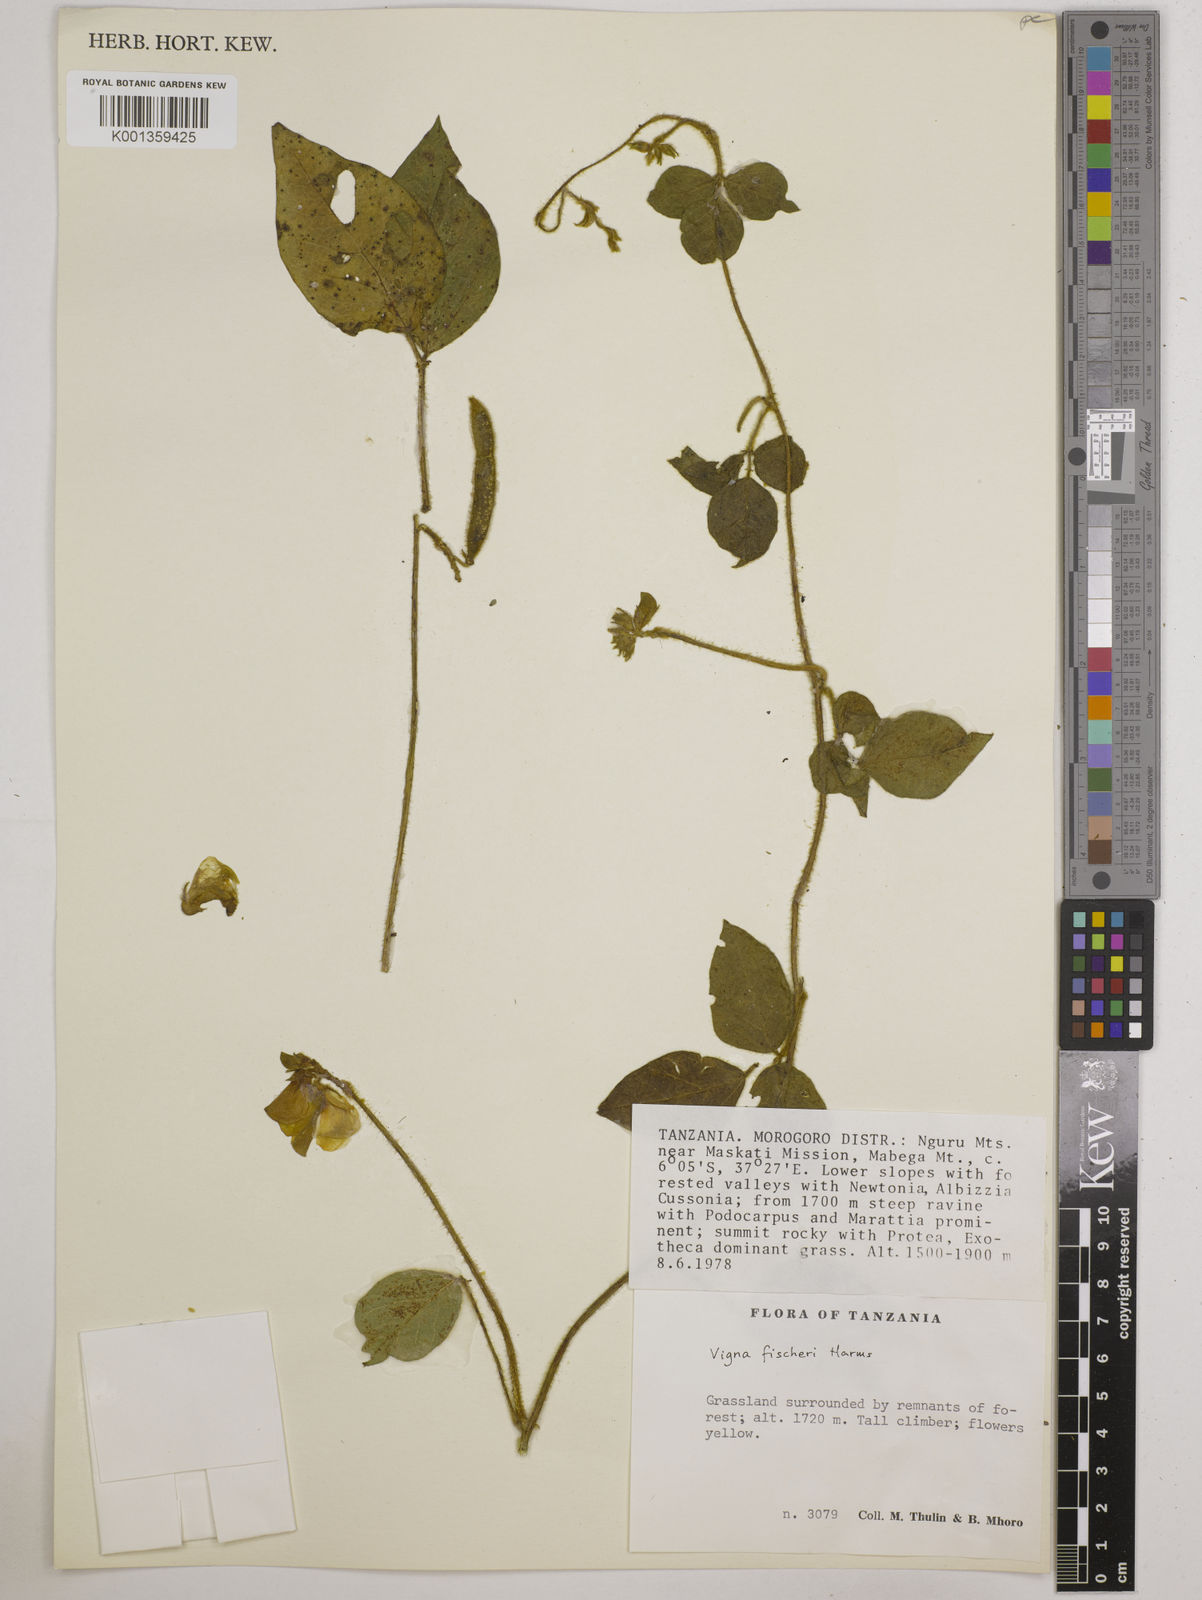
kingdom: Plantae
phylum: Tracheophyta
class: Magnoliopsida
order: Fabales
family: Fabaceae
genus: Vigna
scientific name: Vigna fischeri
